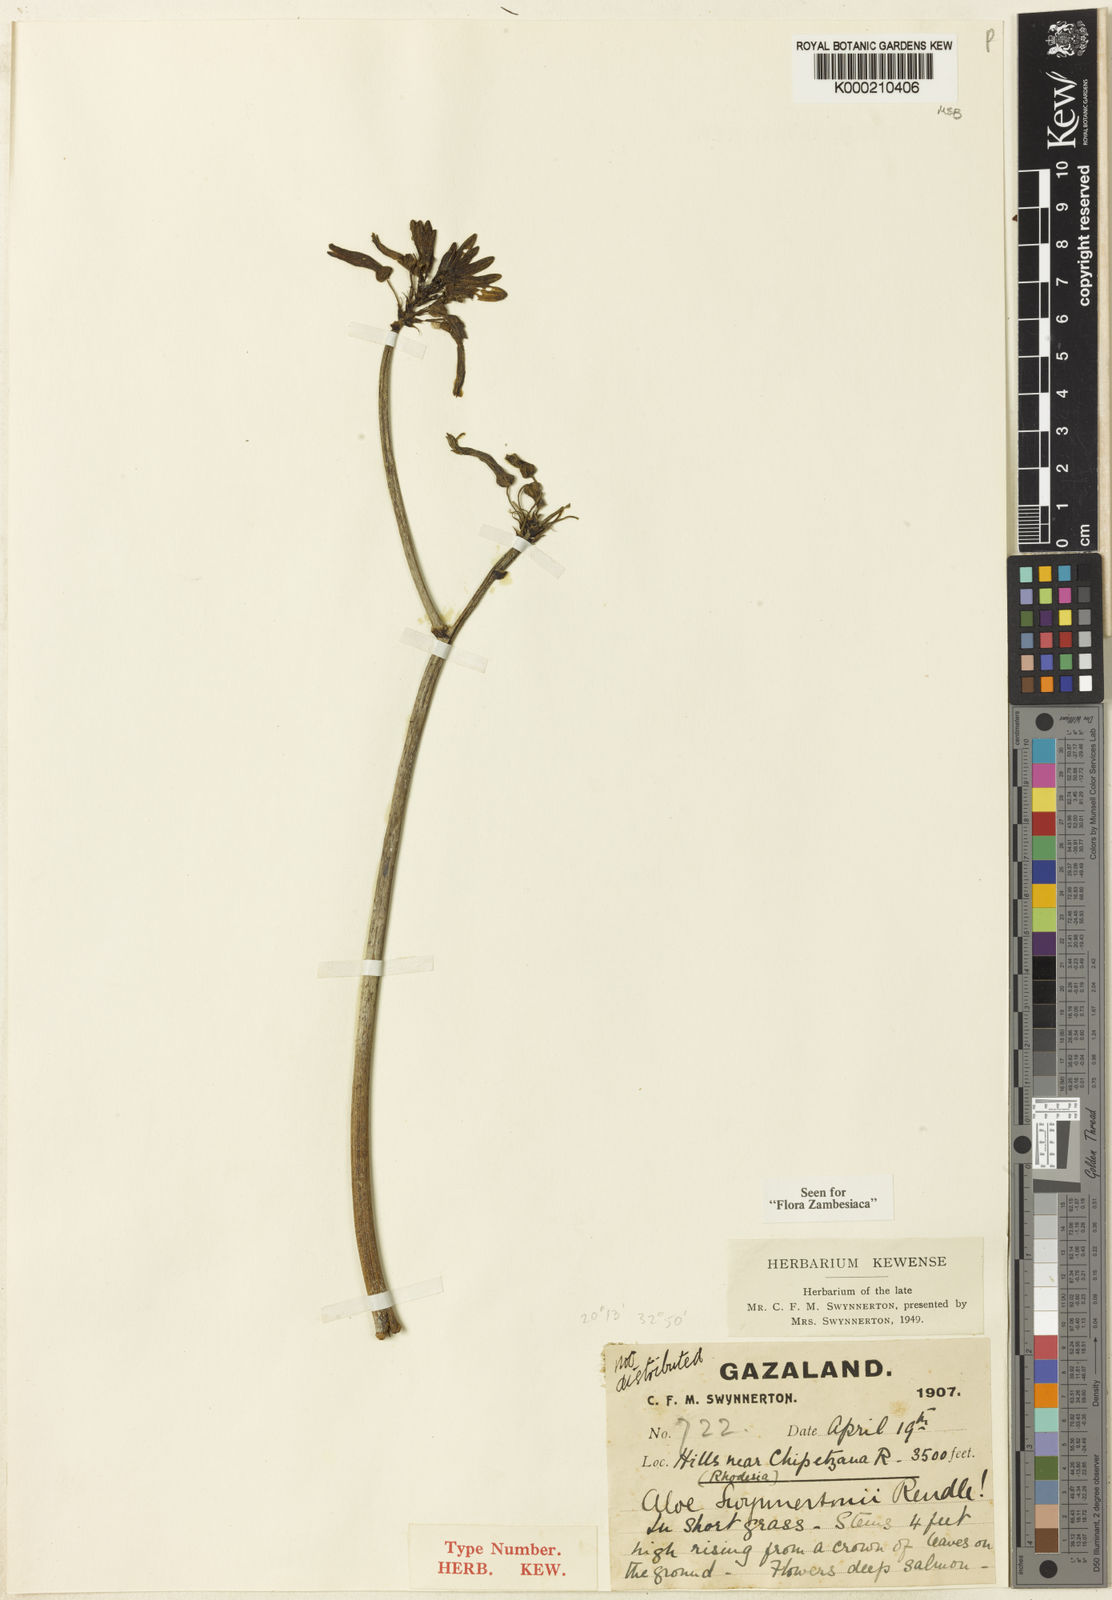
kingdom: Plantae
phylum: Tracheophyta
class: Liliopsida
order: Asparagales
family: Asphodelaceae
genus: Aloe
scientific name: Aloe swynnertonii
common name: Swynnerton's aloe
